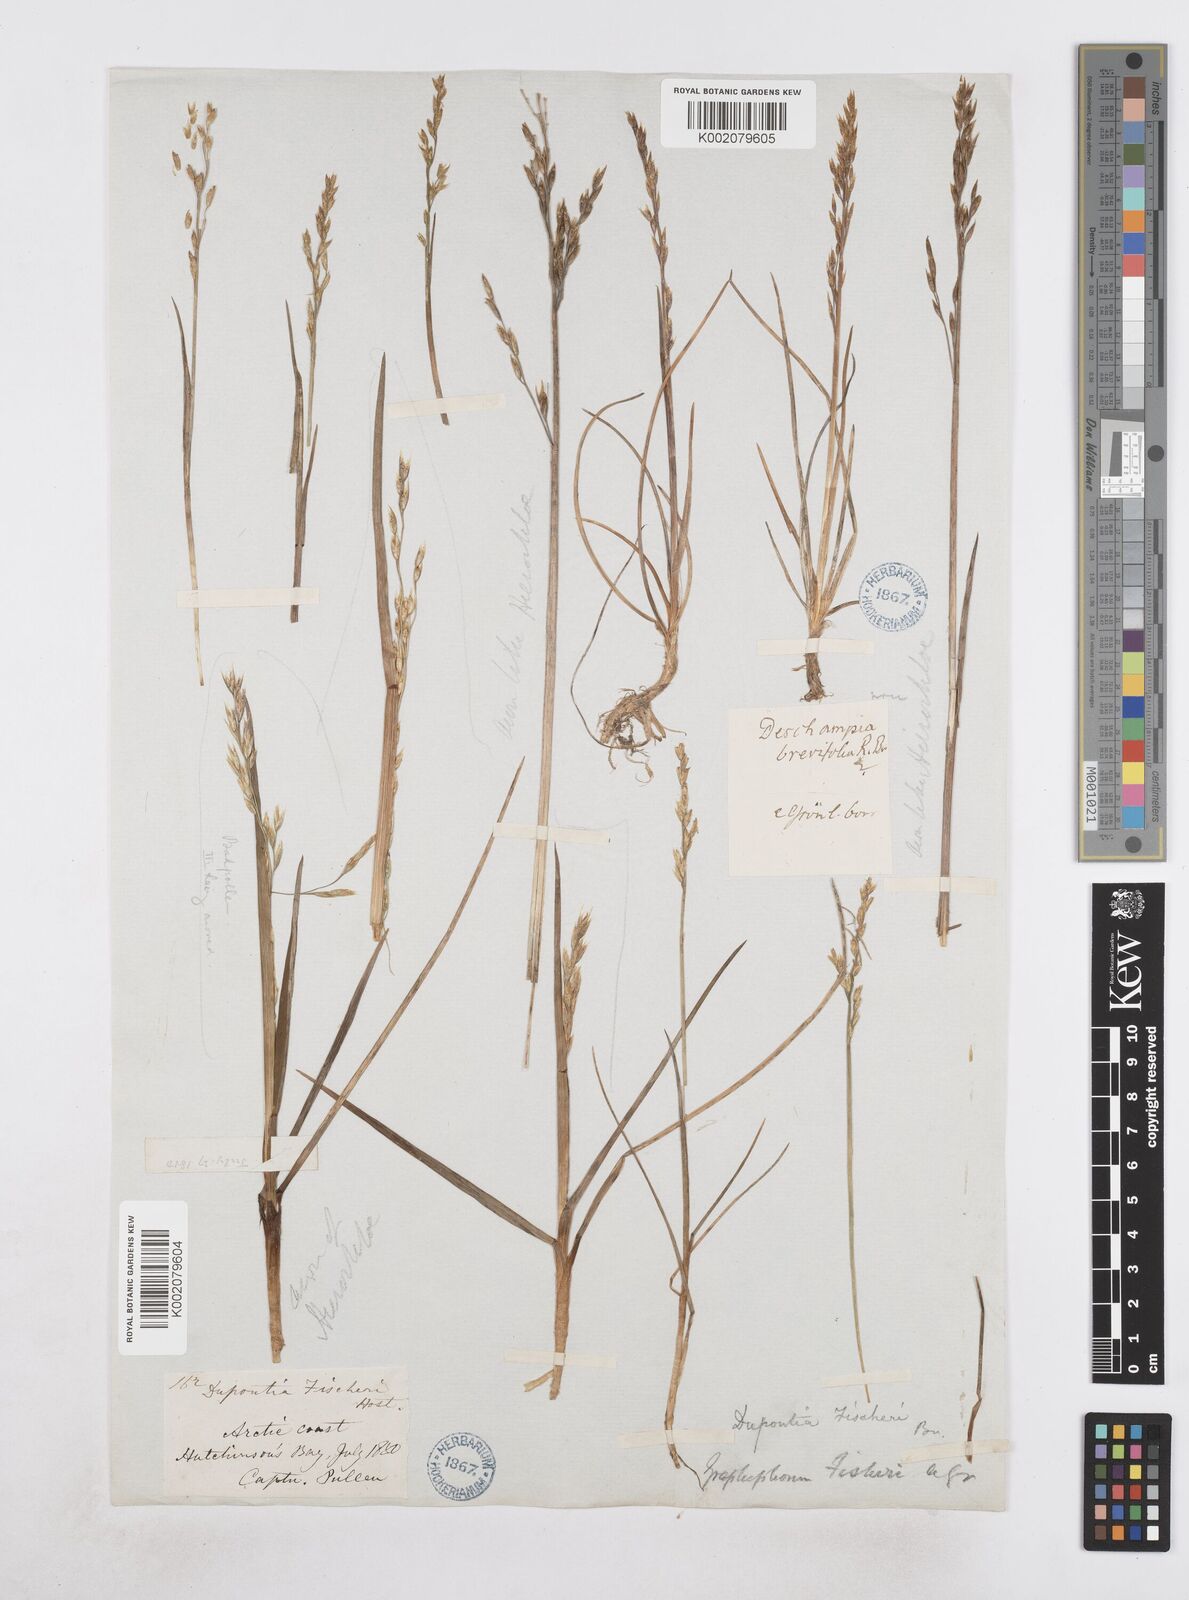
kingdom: Plantae
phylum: Tracheophyta
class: Liliopsida
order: Poales
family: Poaceae
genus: Dupontia
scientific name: Dupontia fisheri
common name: Tundra grass
